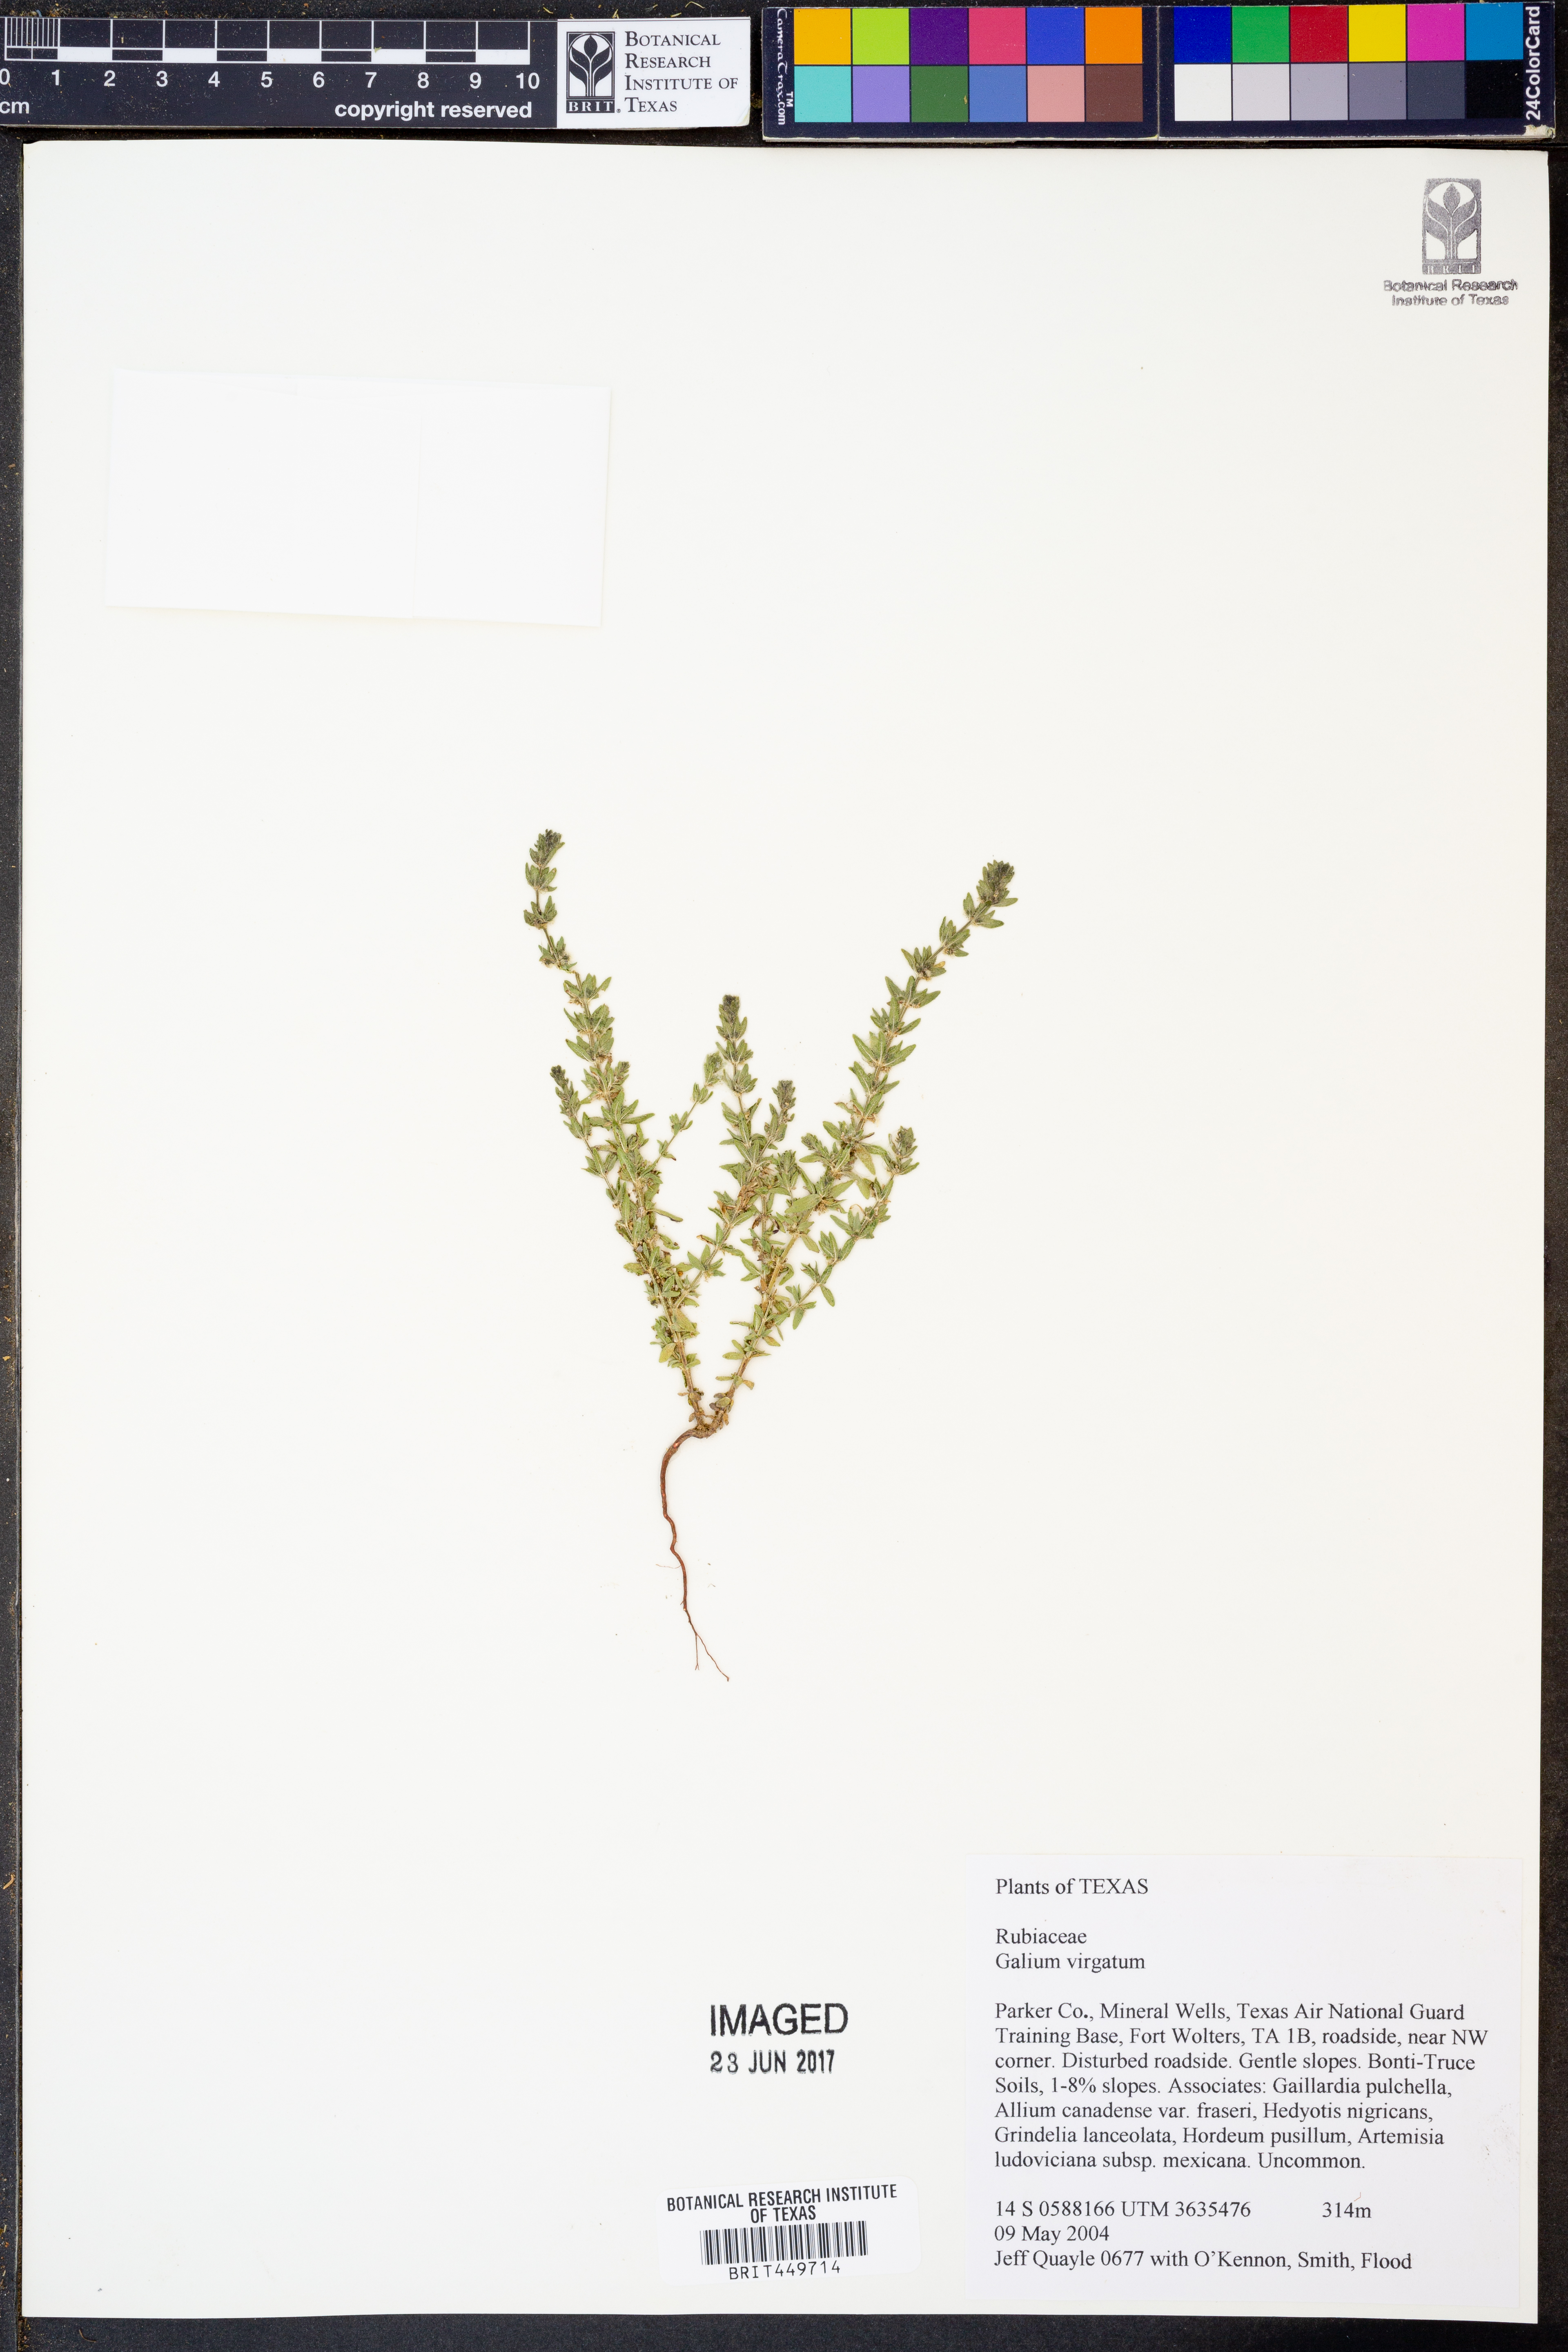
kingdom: Plantae
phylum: Tracheophyta
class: Magnoliopsida
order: Gentianales
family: Rubiaceae
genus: Galium
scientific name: Galium virgatum
